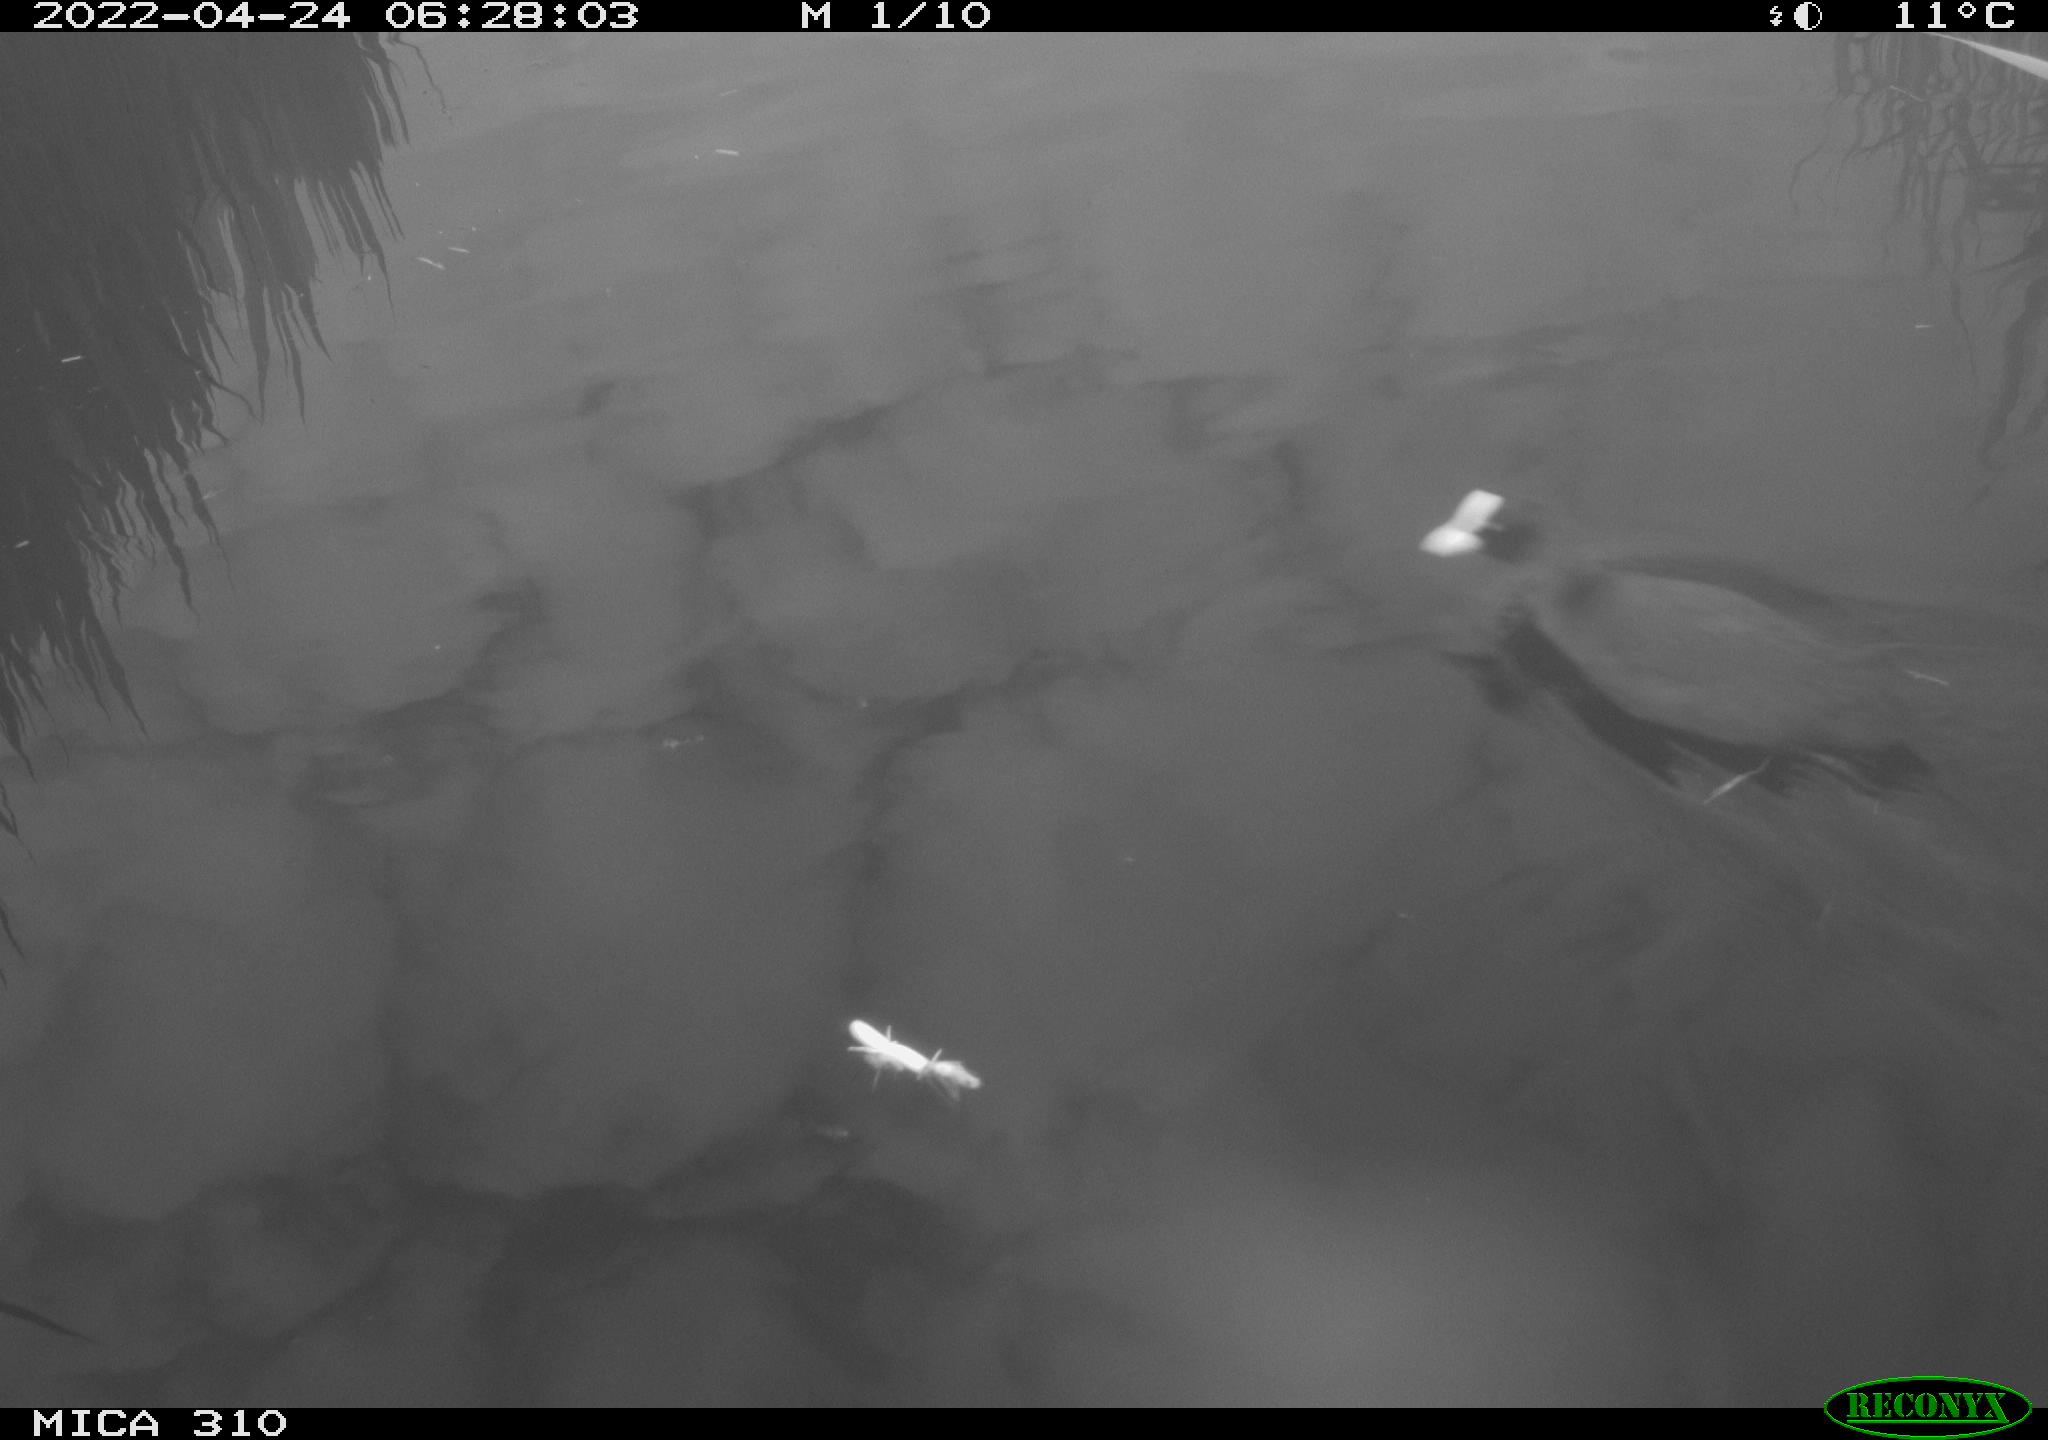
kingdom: Animalia
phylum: Chordata
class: Aves
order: Gruiformes
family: Rallidae
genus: Fulica
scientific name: Fulica atra
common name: Eurasian coot
